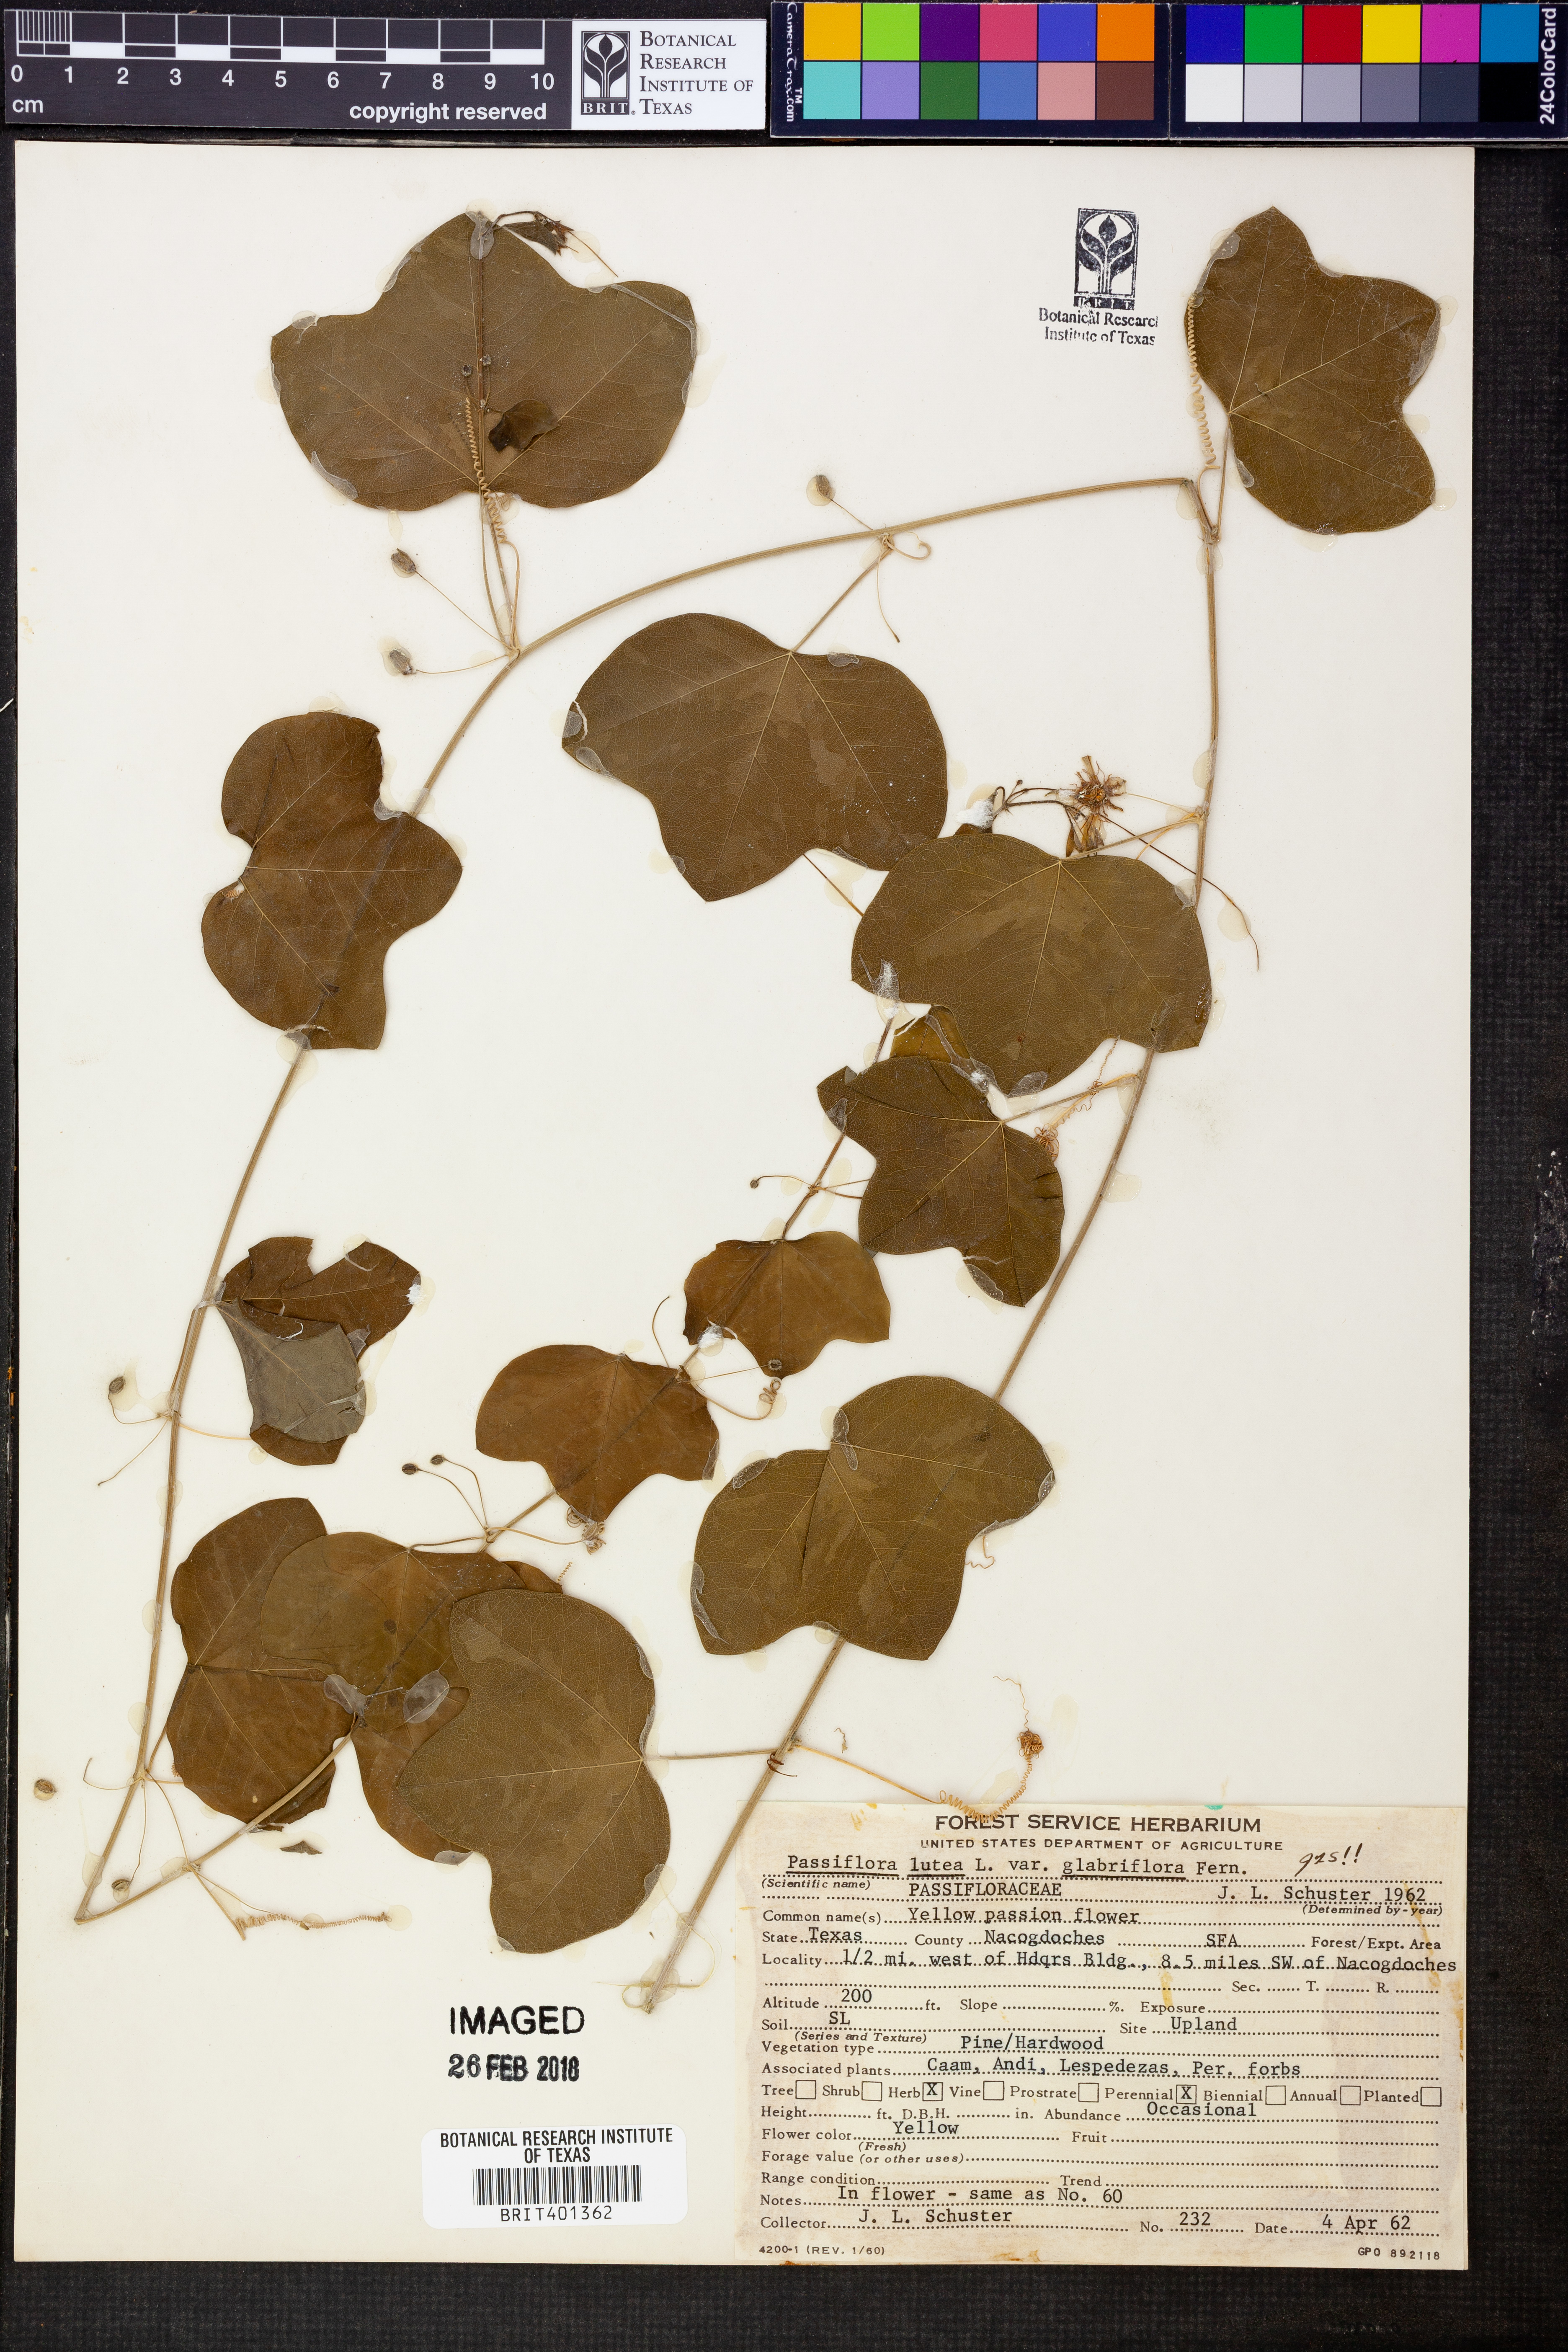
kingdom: Plantae
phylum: Tracheophyta
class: Magnoliopsida
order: Malpighiales
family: Passifloraceae
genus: Passiflora
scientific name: Passiflora lutea
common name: Yellow passionflower
